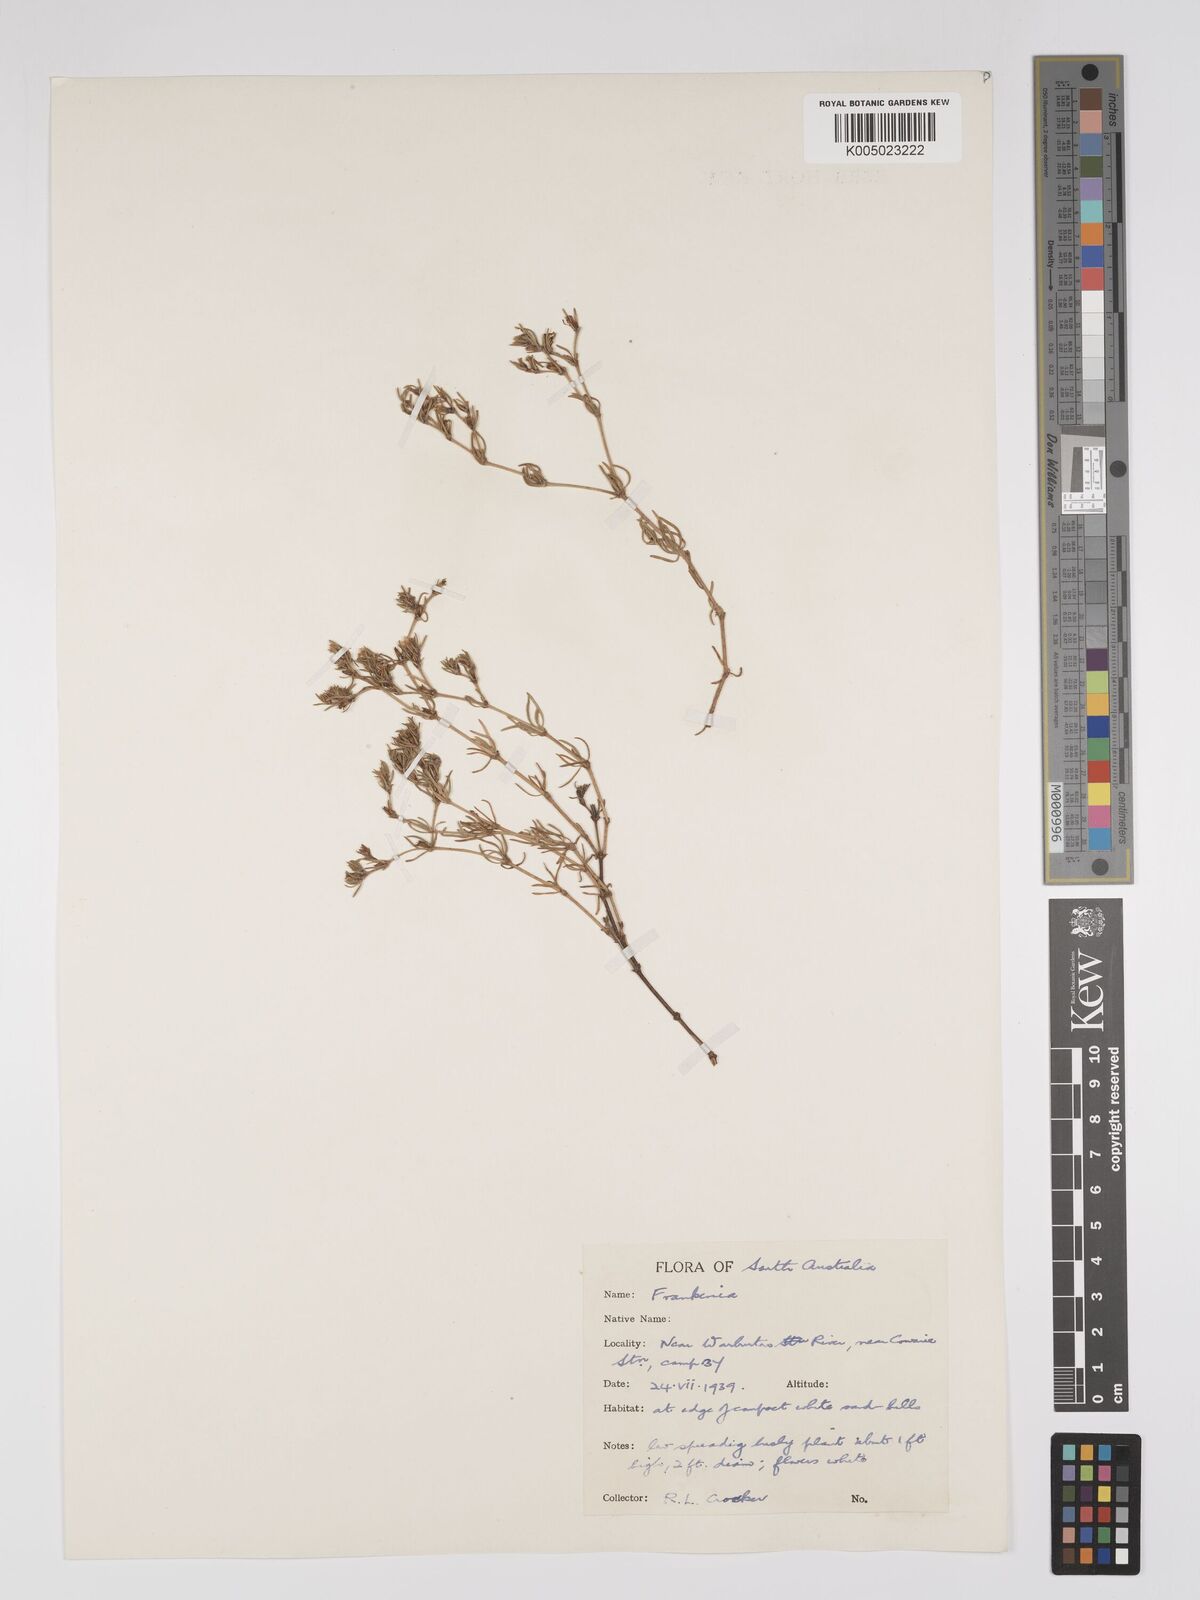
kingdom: Plantae
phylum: Tracheophyta
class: Magnoliopsida
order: Caryophyllales
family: Frankeniaceae
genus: Frankenia
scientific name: Frankenia
